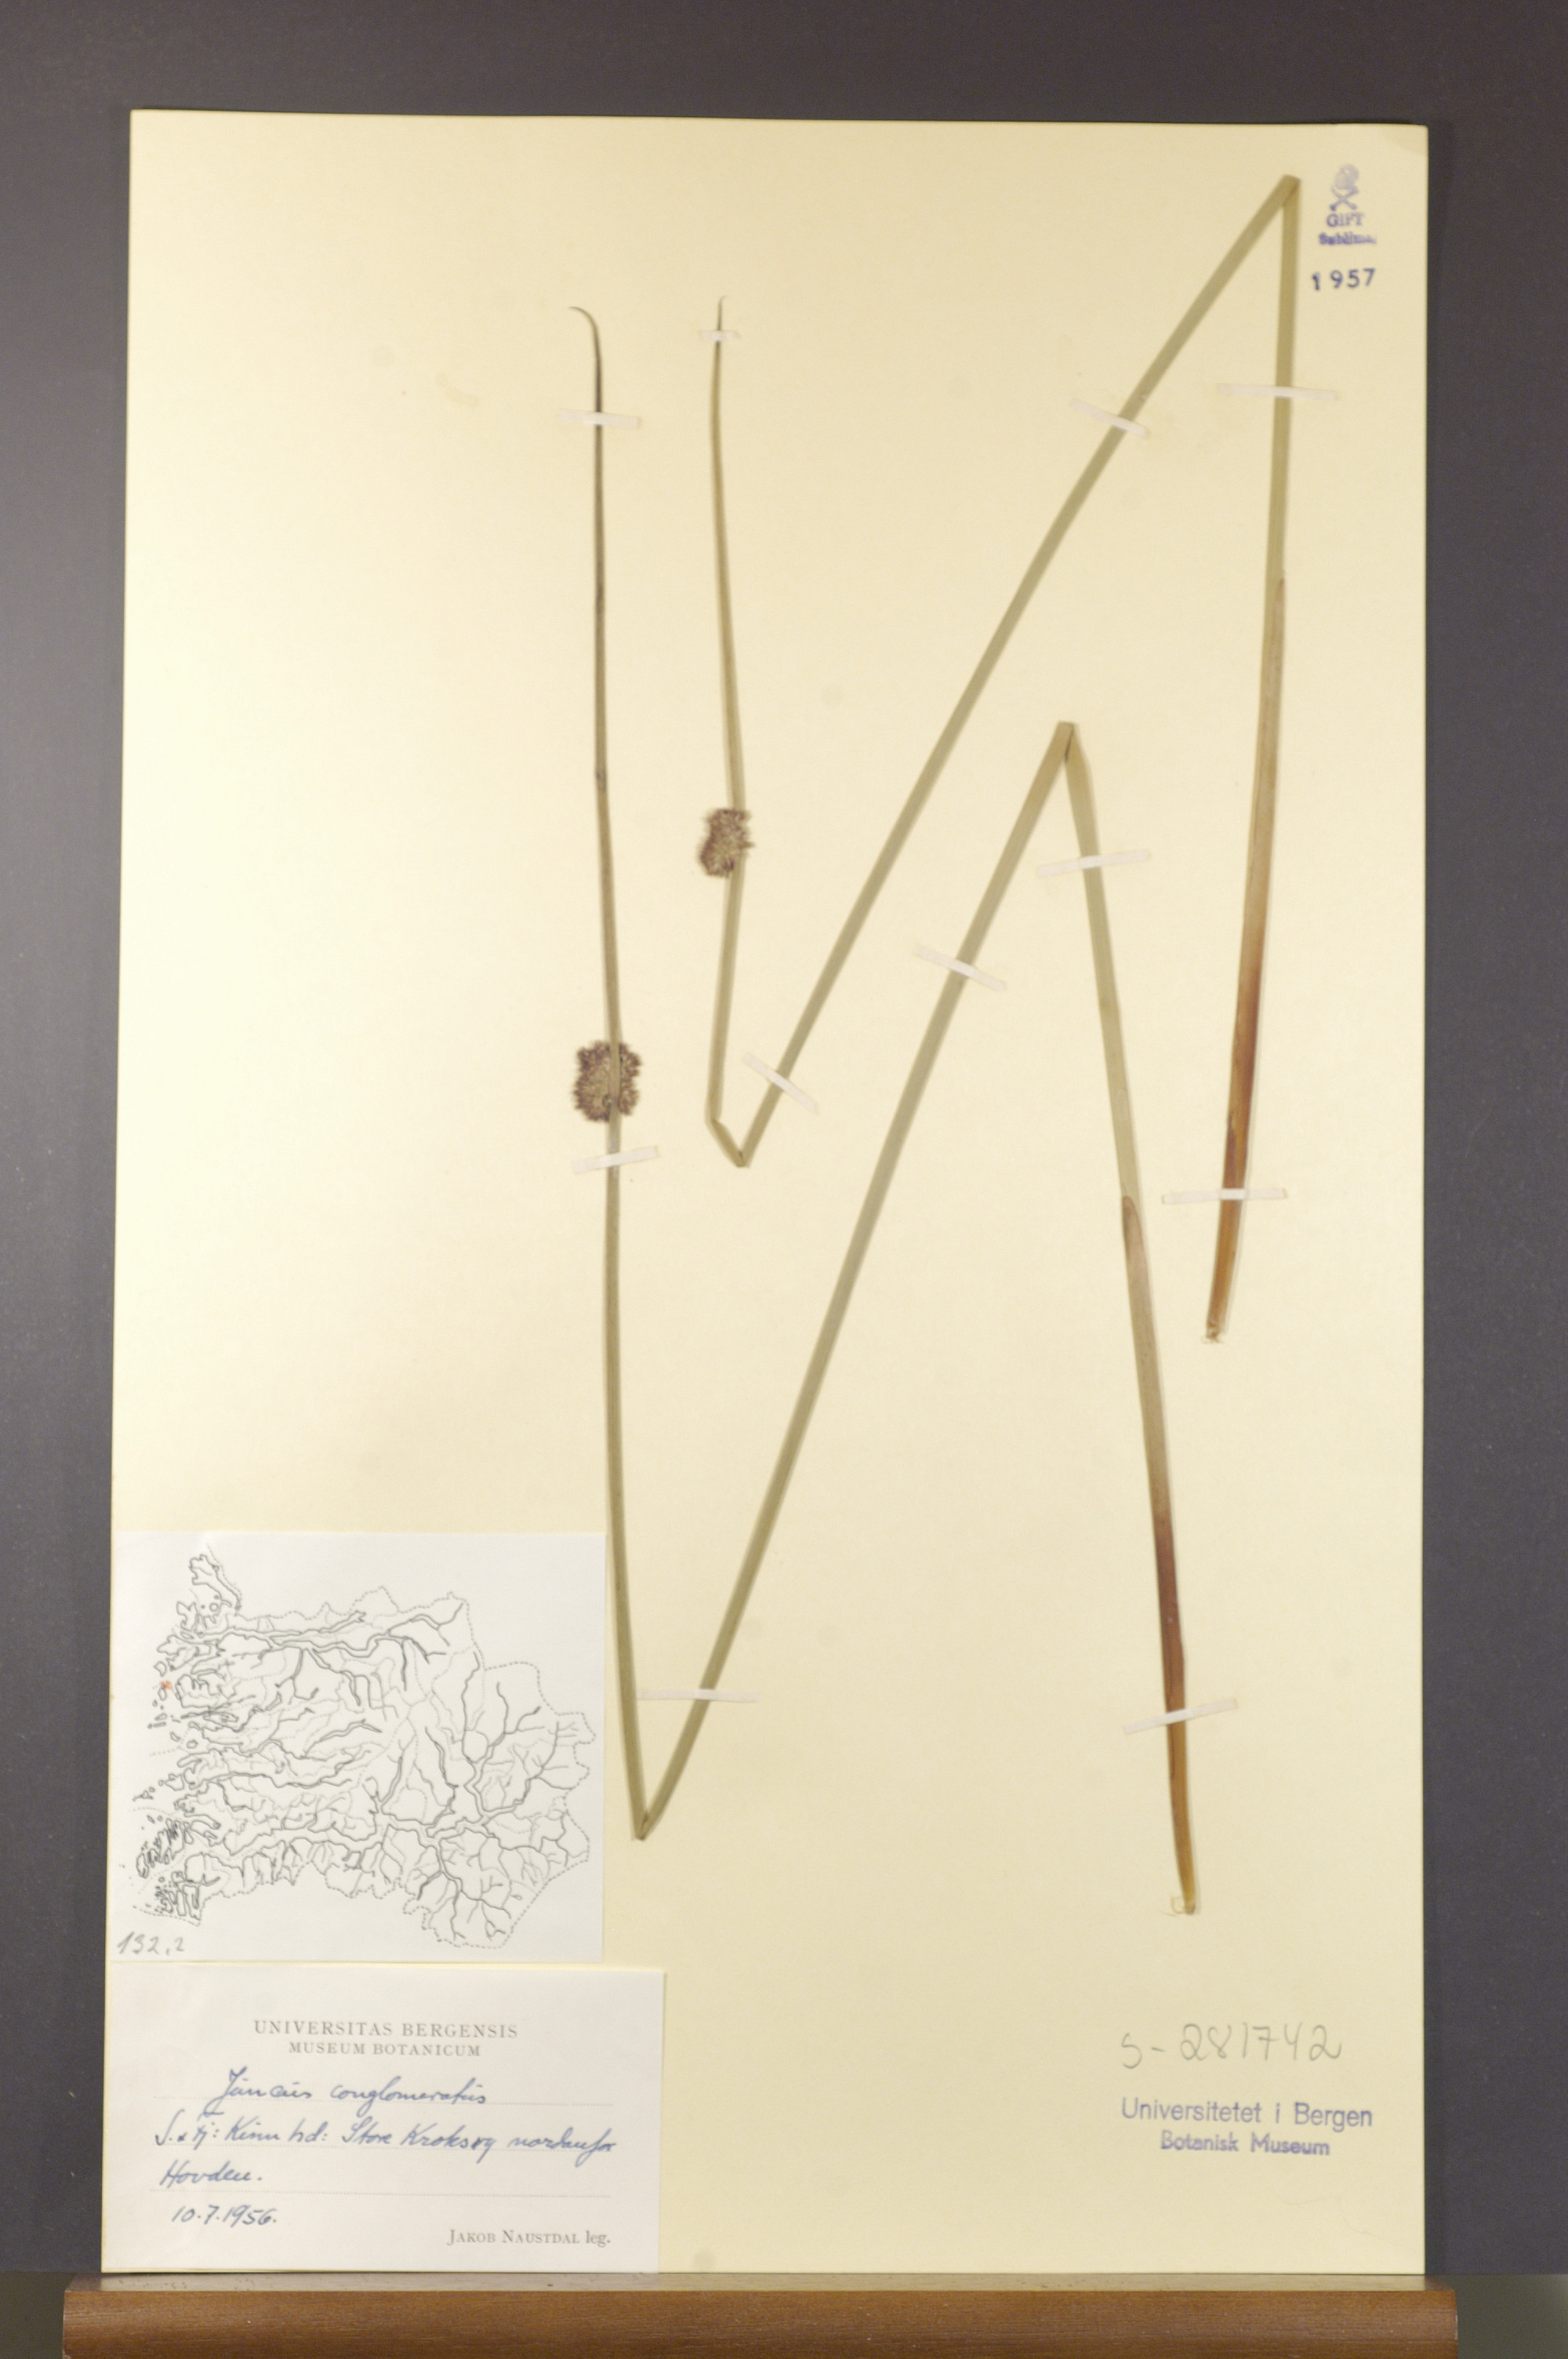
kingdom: Plantae
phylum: Tracheophyta
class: Liliopsida
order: Poales
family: Juncaceae
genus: Juncus
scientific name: Juncus conglomeratus
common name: Compact rush
